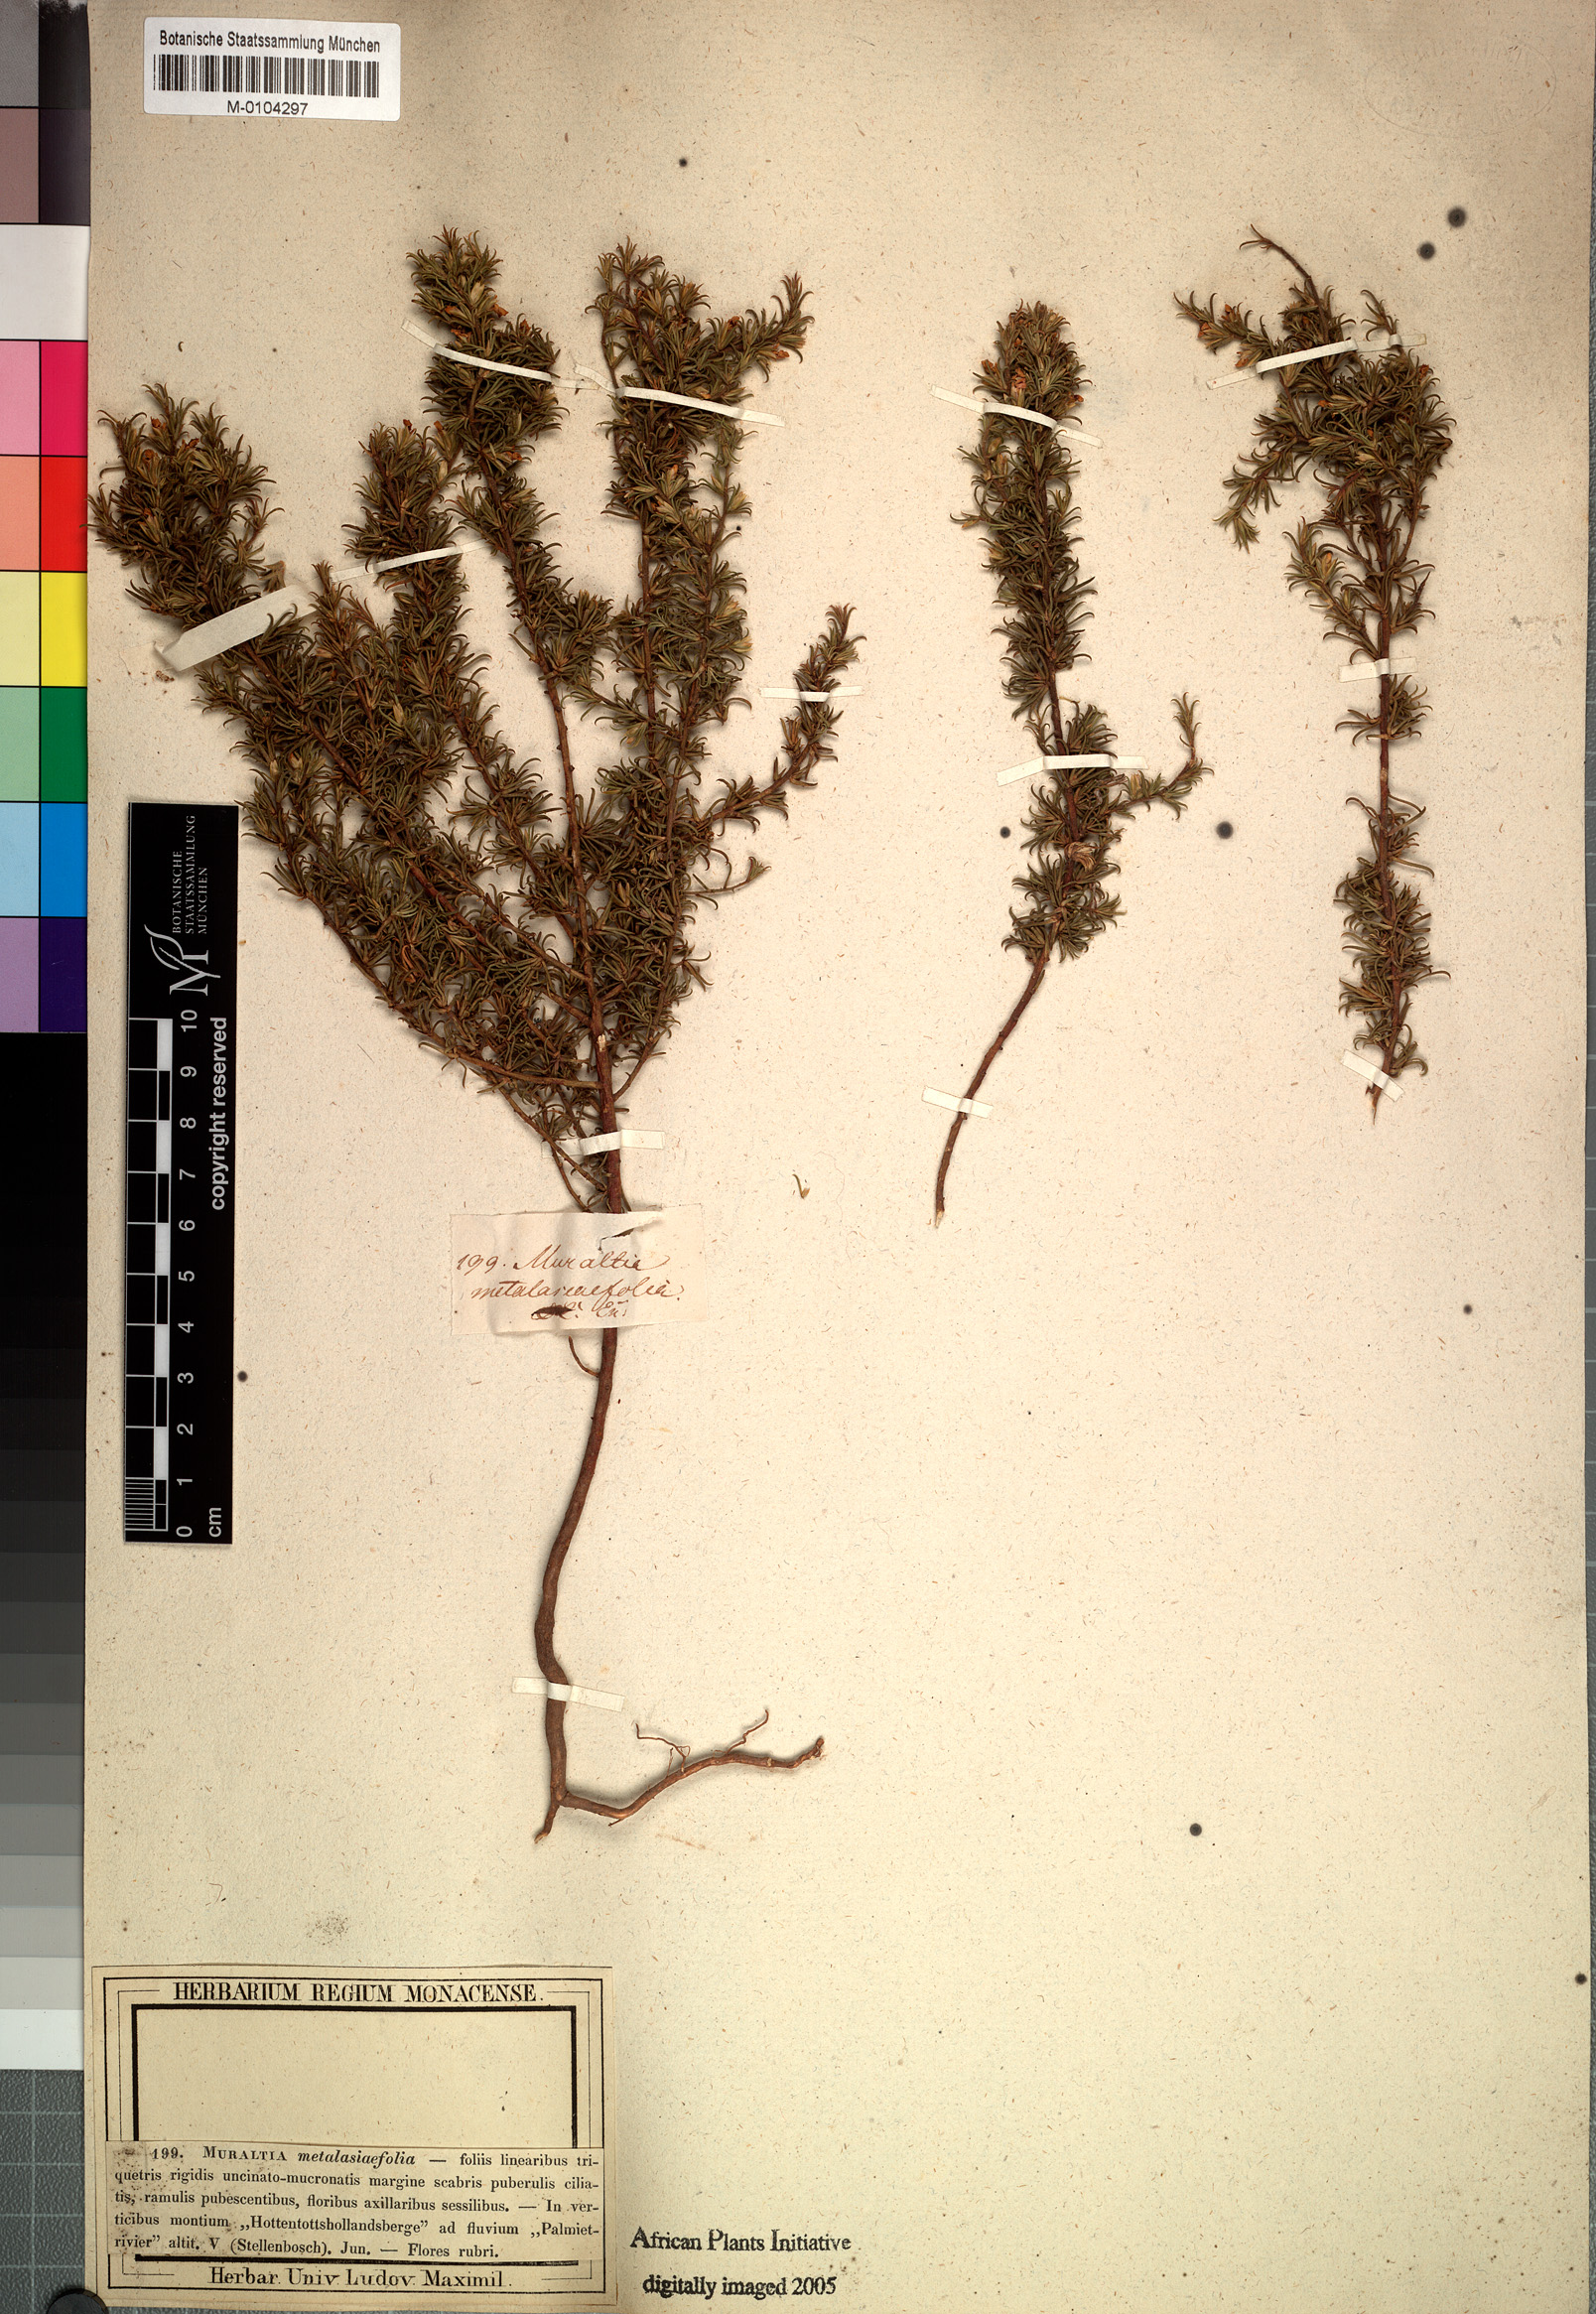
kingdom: Plantae
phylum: Tracheophyta
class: Magnoliopsida
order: Fabales
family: Polygalaceae
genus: Muraltia
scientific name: Muraltia rubeacea
